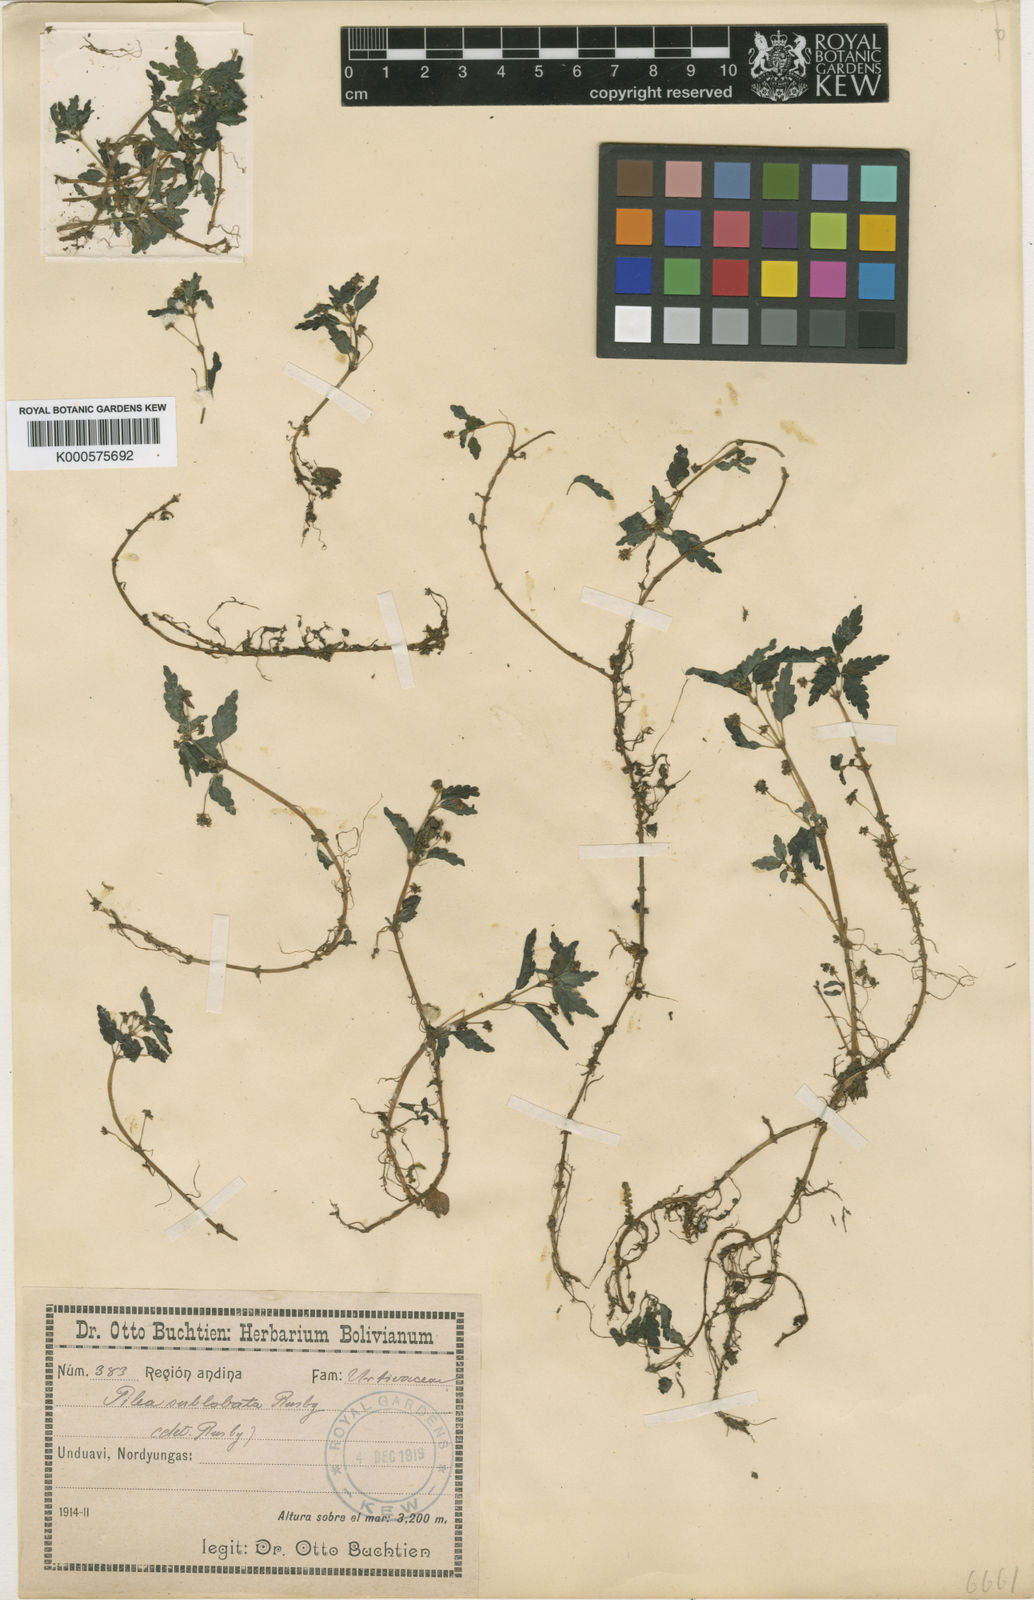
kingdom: Plantae
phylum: Tracheophyta
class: Magnoliopsida
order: Rosales
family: Urticaceae
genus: Pilea
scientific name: Pilea sublobata
